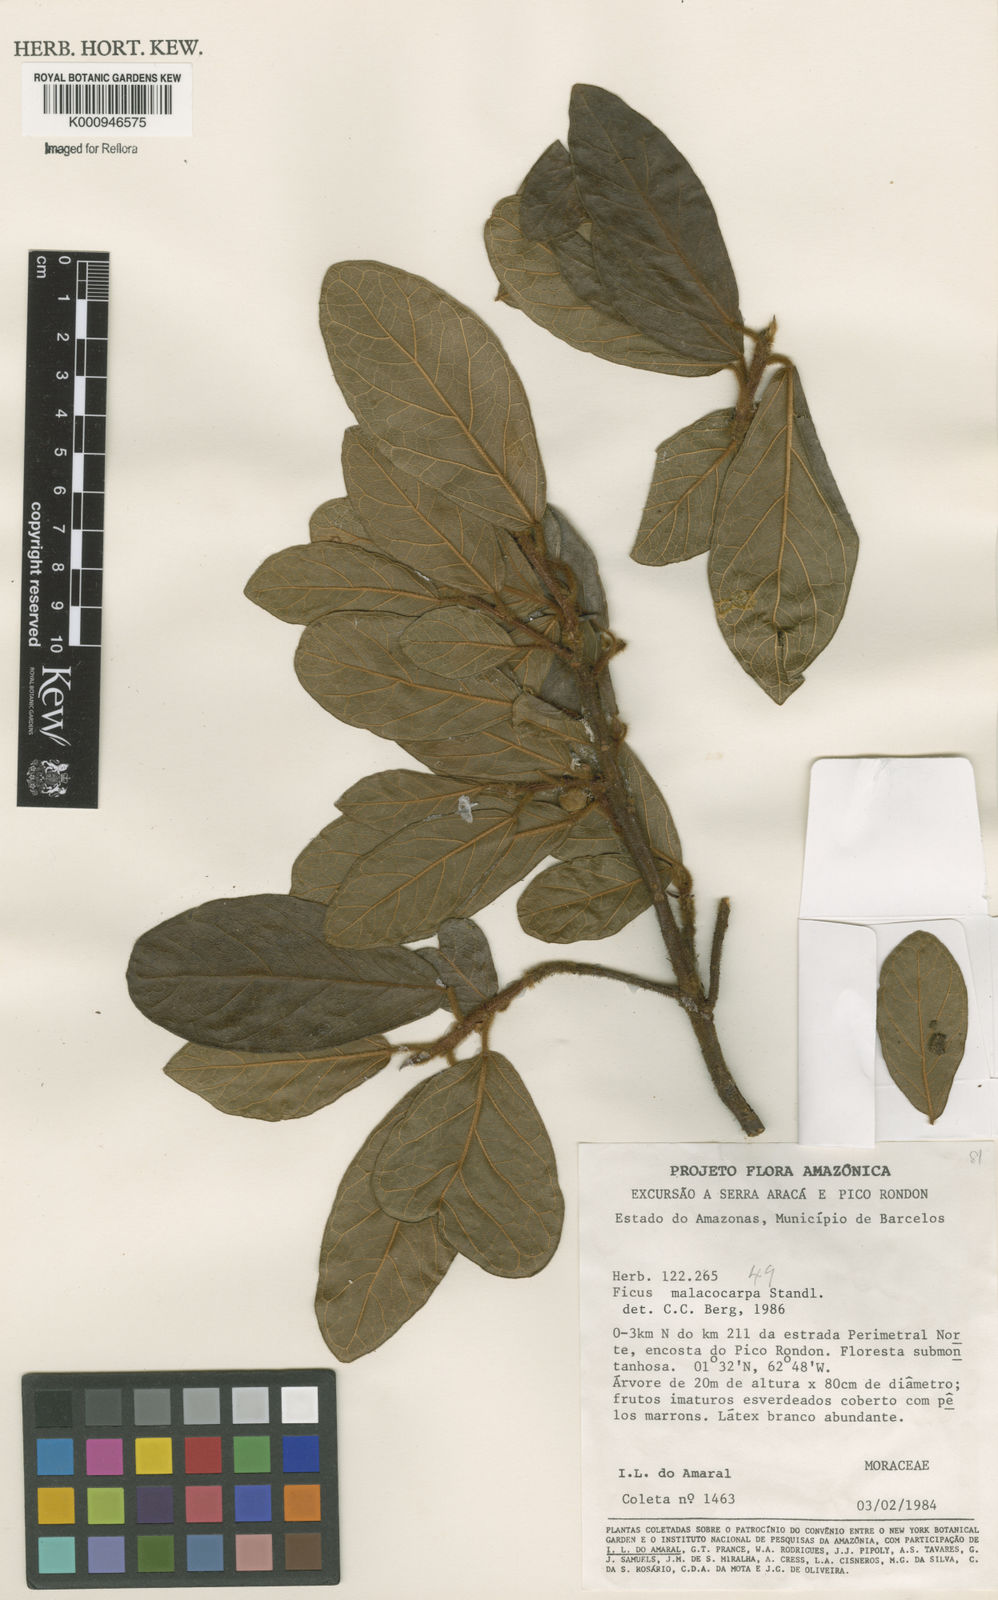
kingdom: Plantae
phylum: Tracheophyta
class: Magnoliopsida
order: Rosales
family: Moraceae
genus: Ficus
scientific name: Ficus popenoei
